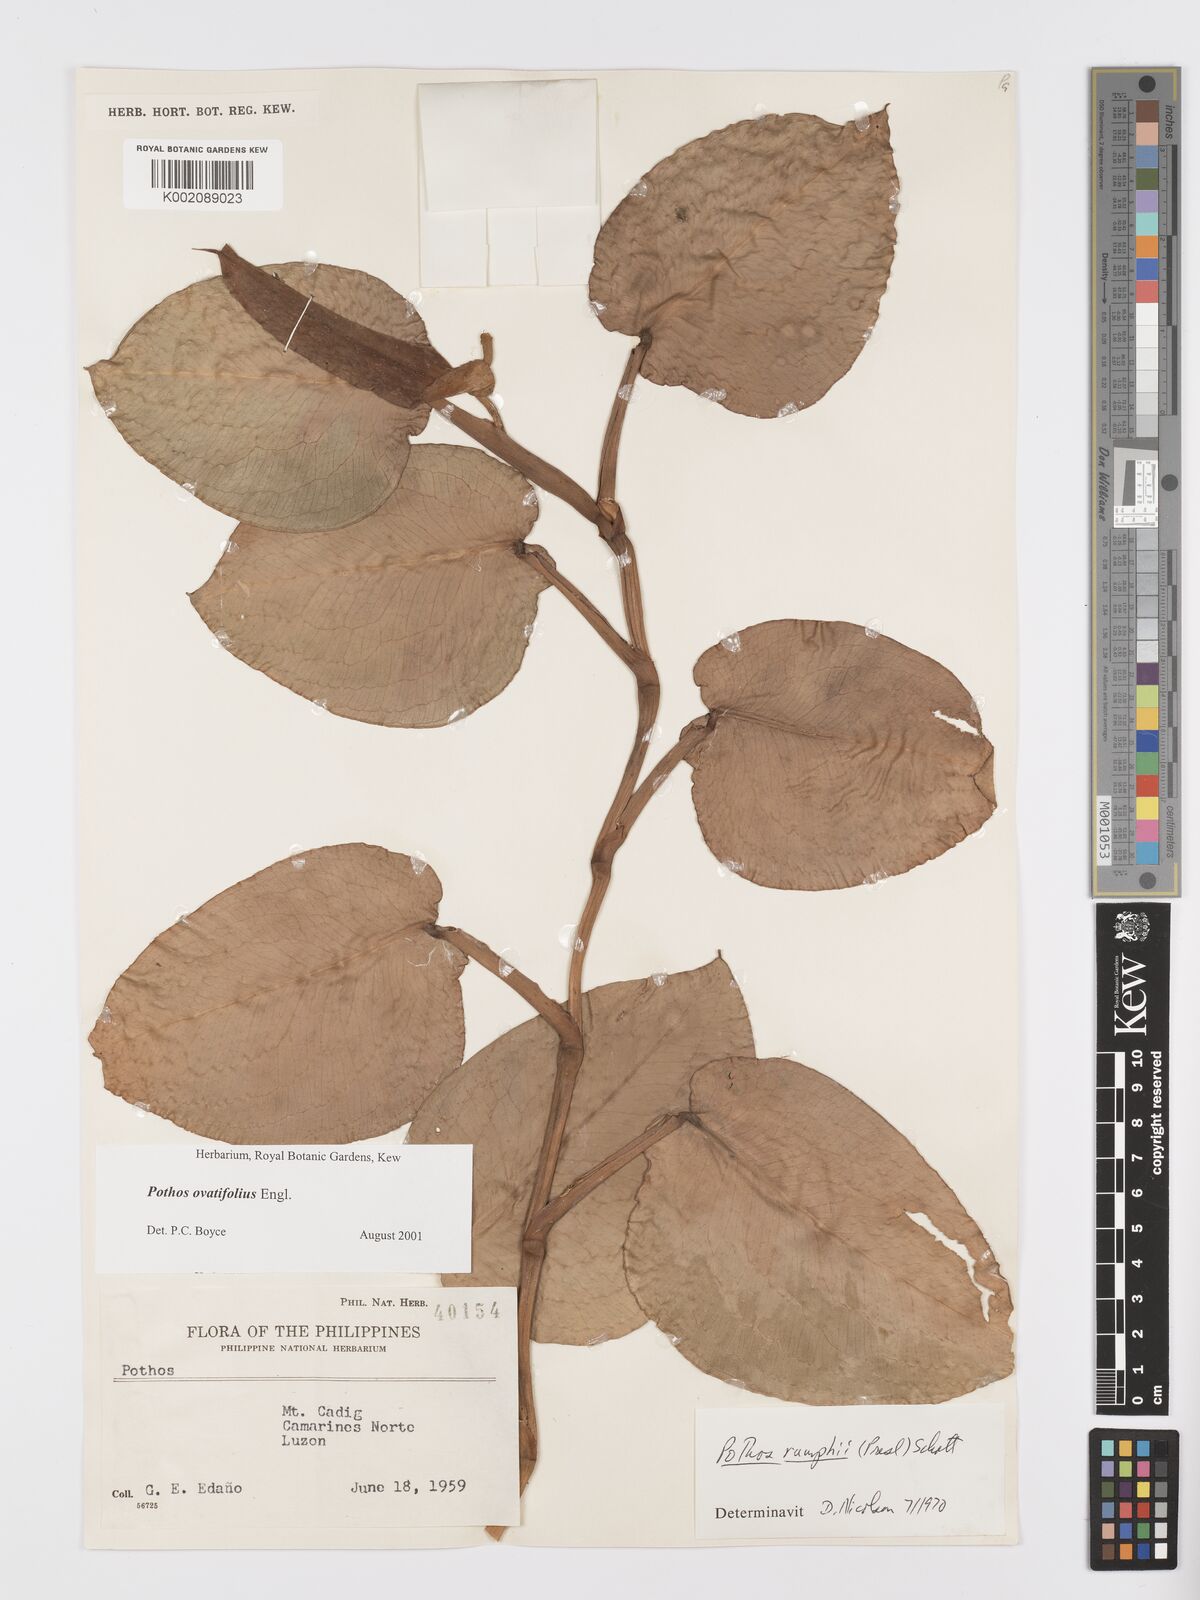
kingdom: Plantae
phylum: Tracheophyta
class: Liliopsida
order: Alismatales
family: Araceae
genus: Pothos
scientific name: Pothos ovatifolius
